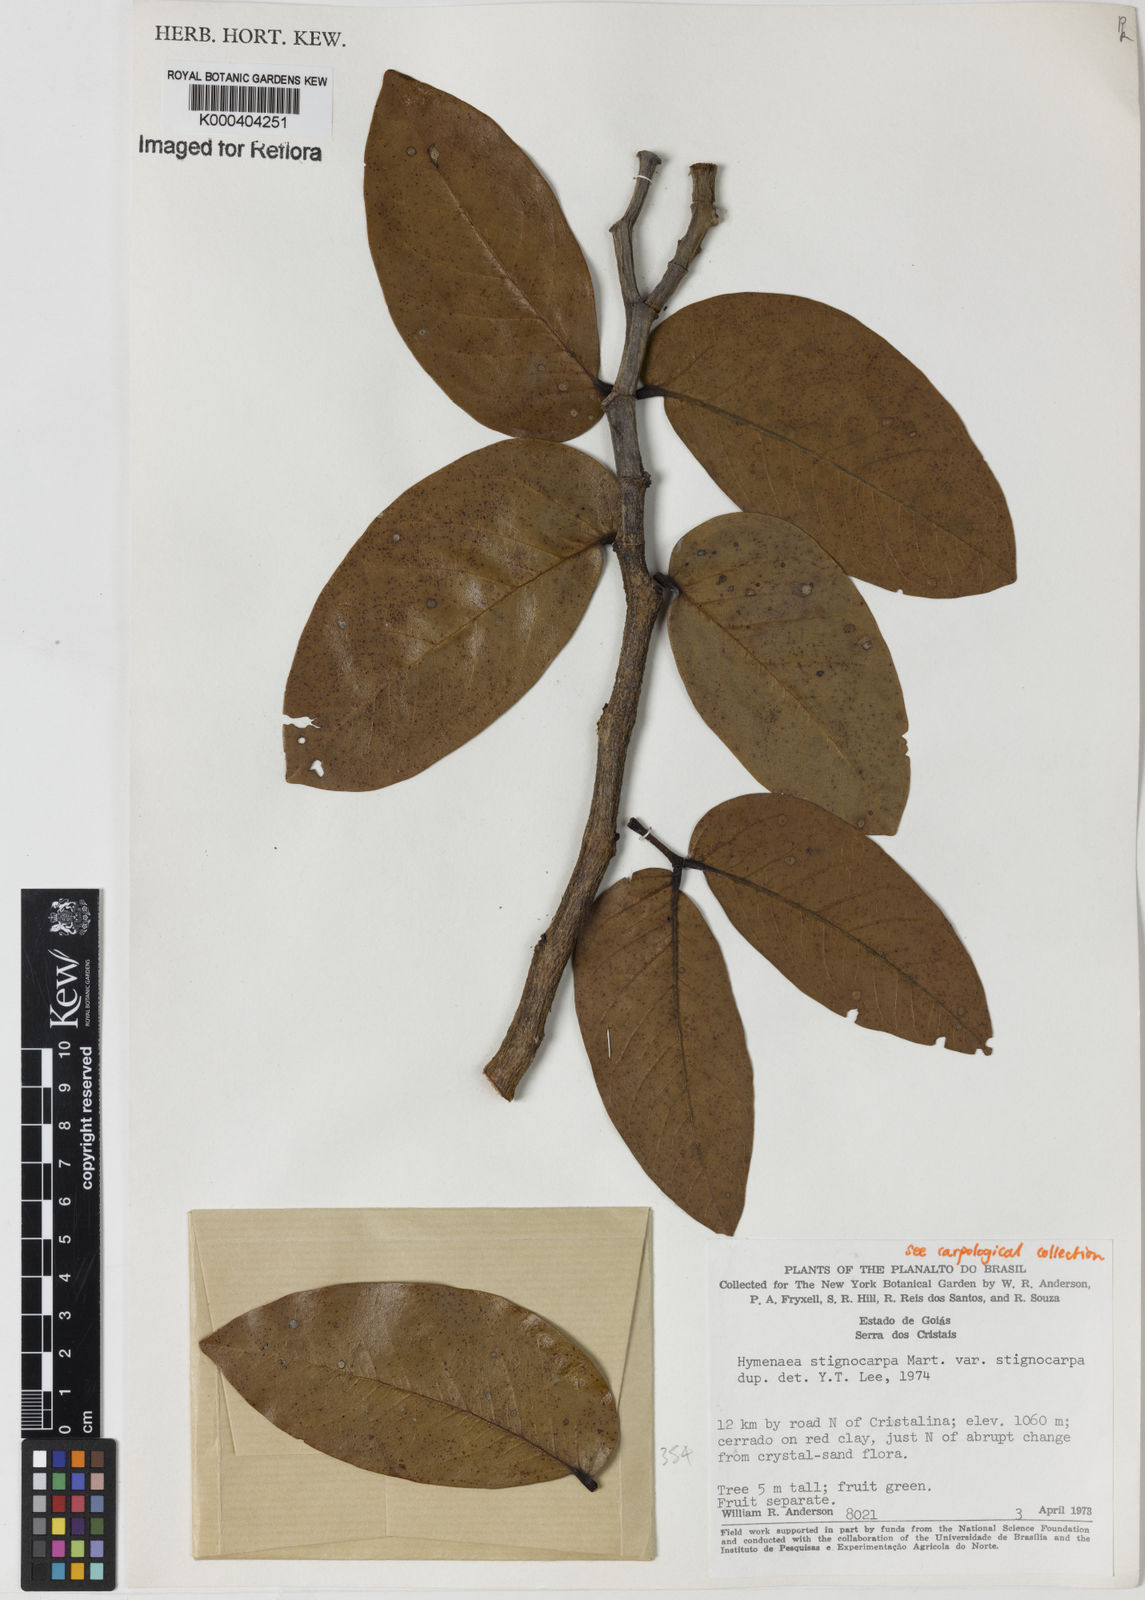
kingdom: Plantae
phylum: Tracheophyta
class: Magnoliopsida
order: Fabales
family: Fabaceae
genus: Hymenaea
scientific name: Hymenaea stigonocarpa
